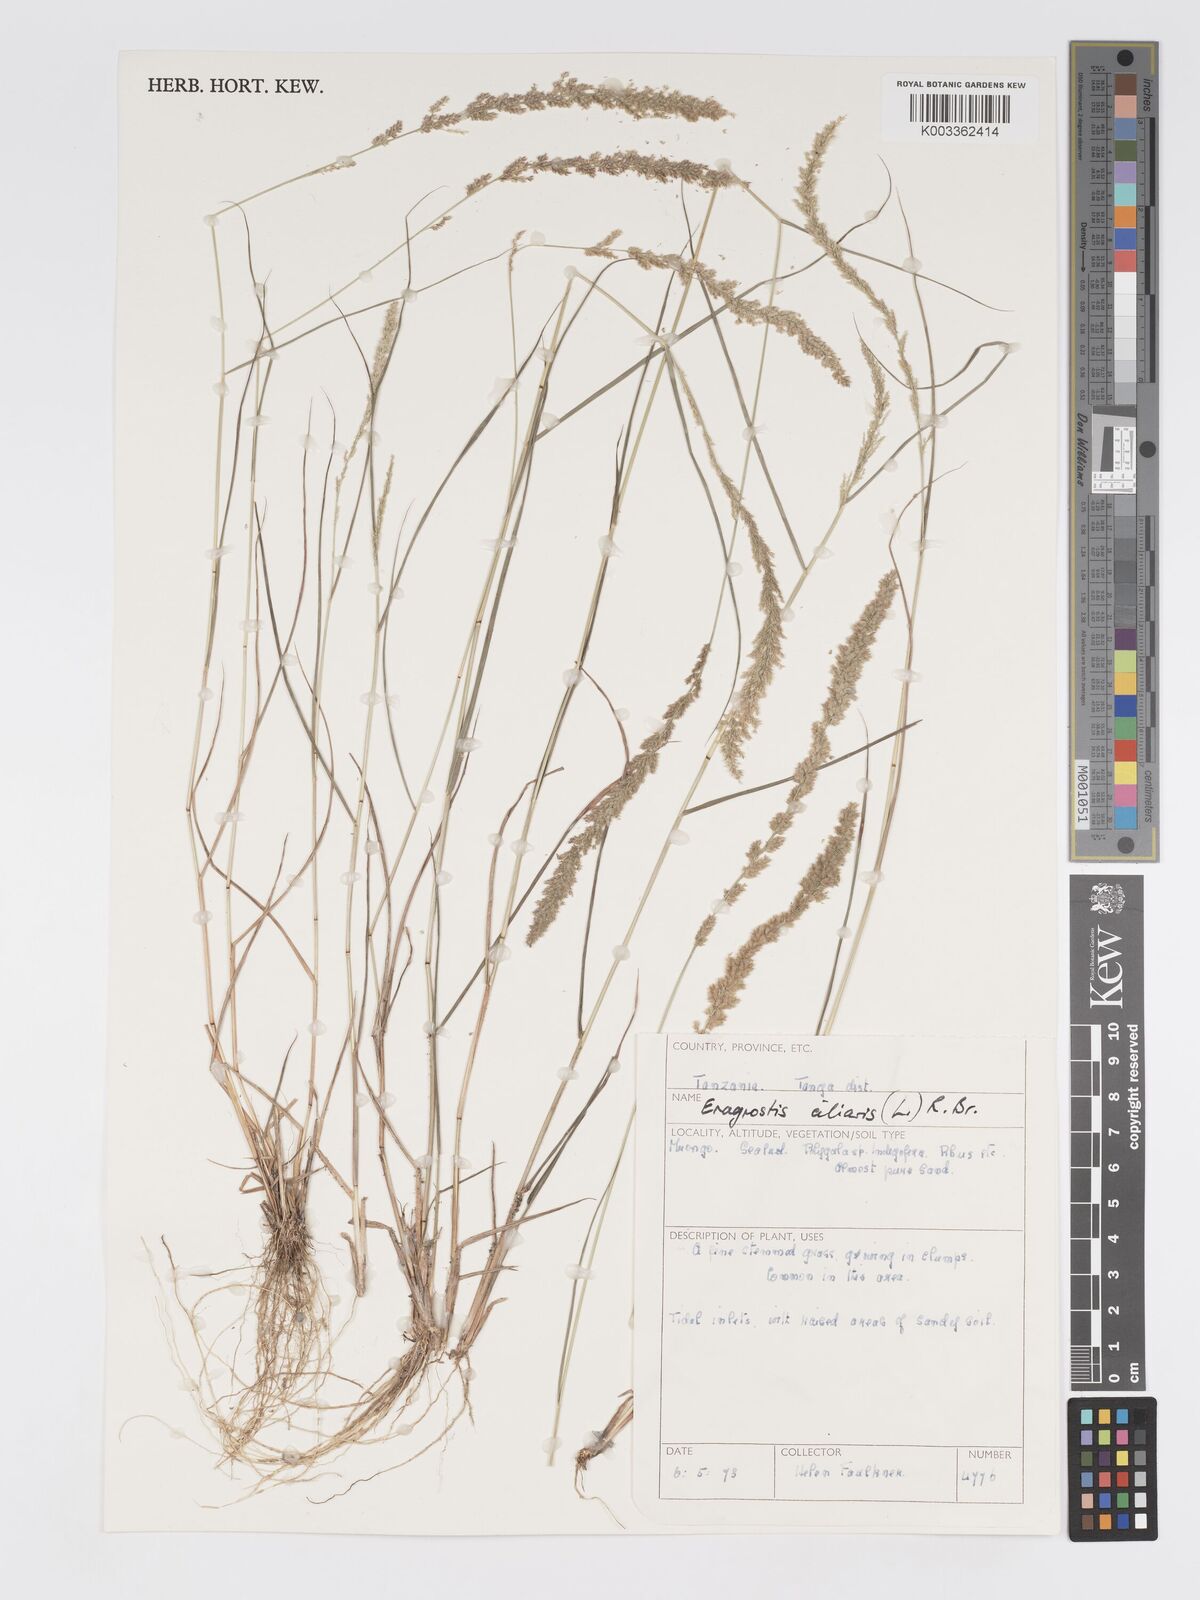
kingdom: Plantae
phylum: Tracheophyta
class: Liliopsida
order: Poales
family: Poaceae
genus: Eragrostis
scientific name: Eragrostis ciliaris
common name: Gophertail lovegrass
